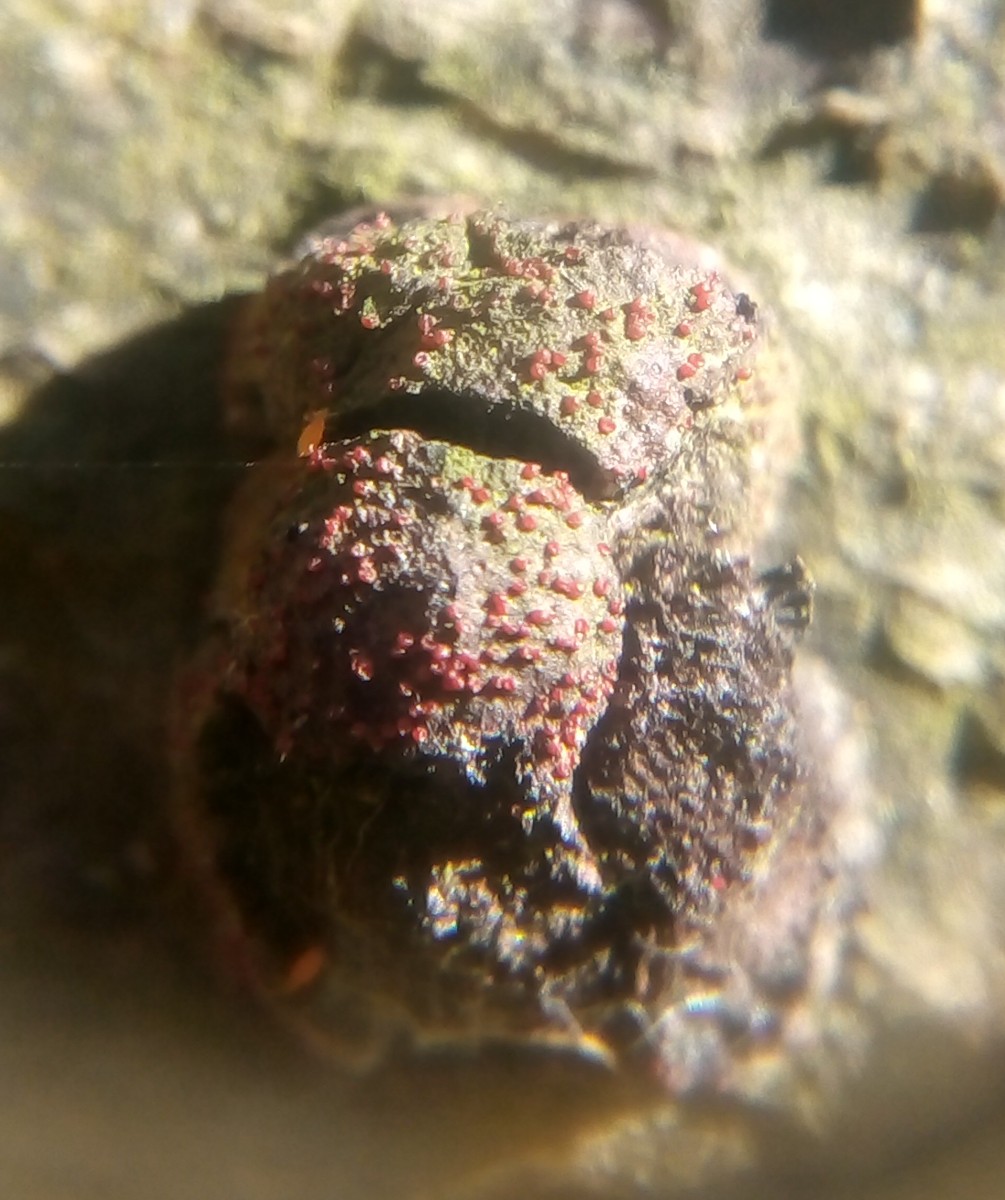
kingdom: Fungi
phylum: Ascomycota
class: Sordariomycetes
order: Hypocreales
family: Nectriaceae
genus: Cosmospora
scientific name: Cosmospora arxii
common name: kuljordbær-cinnobersvamp
